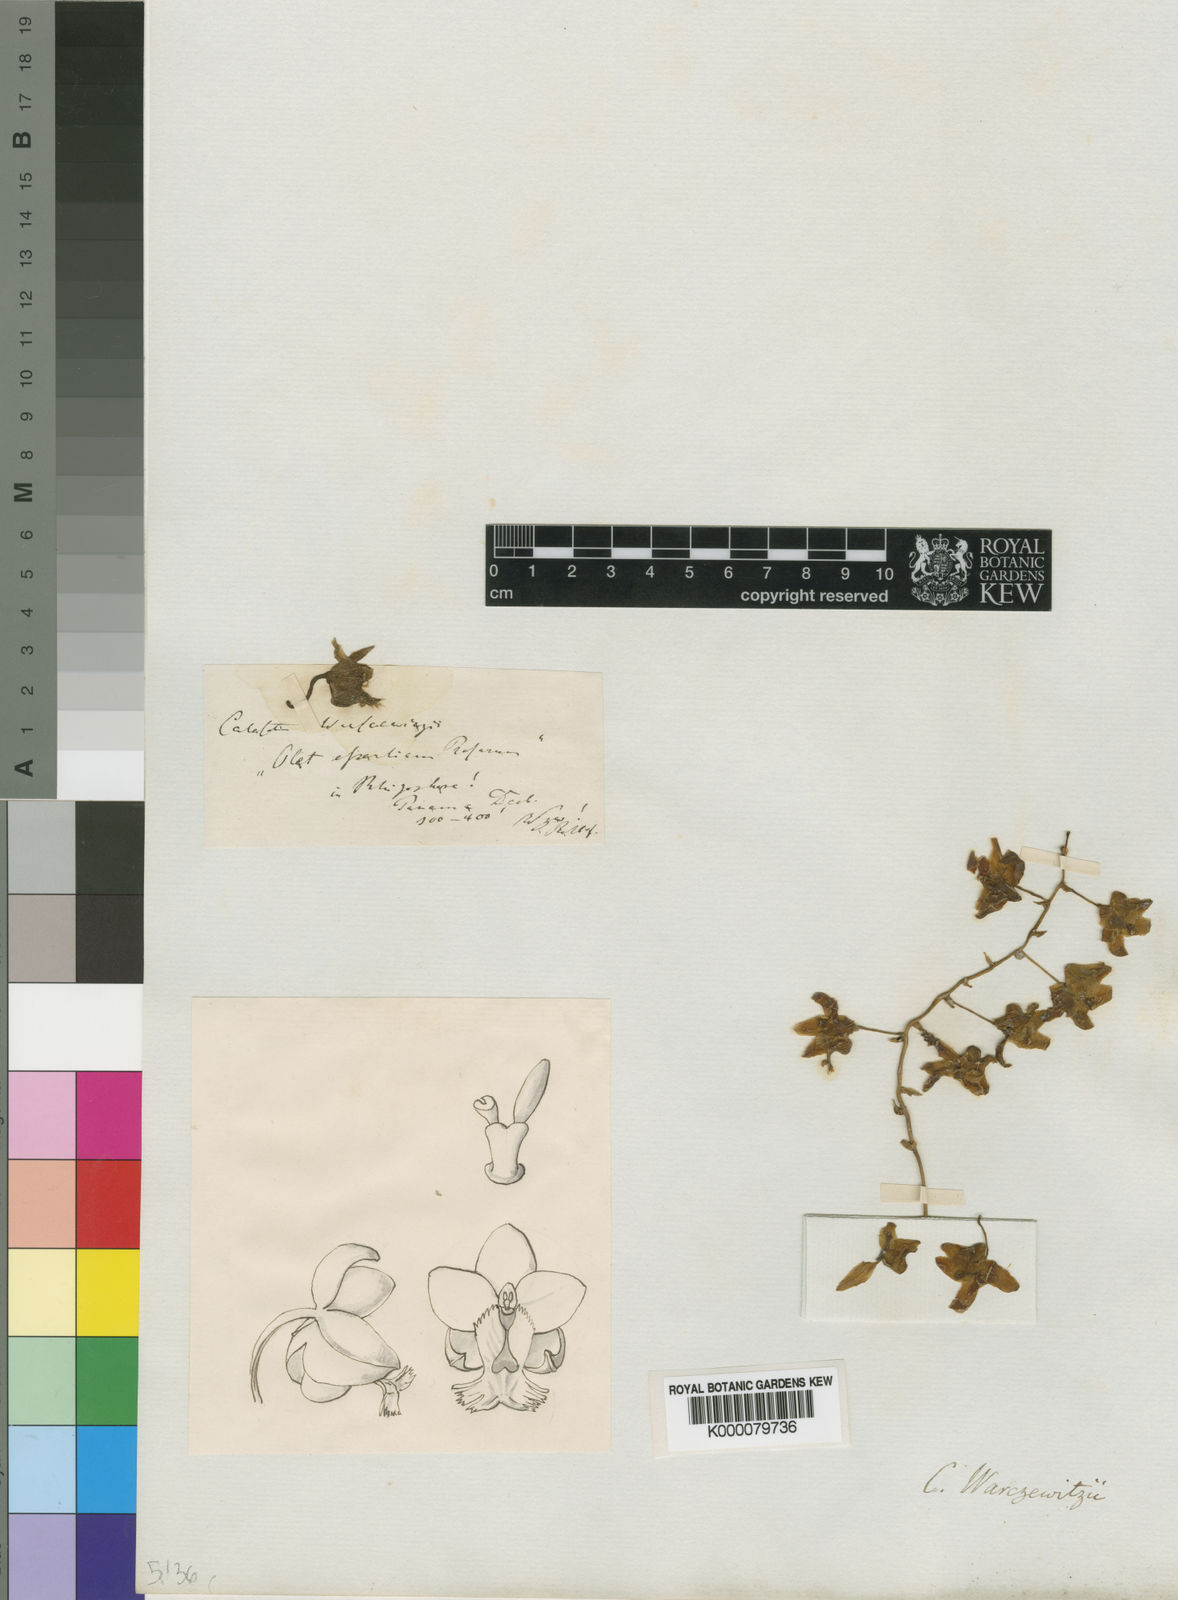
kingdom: Plantae
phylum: Tracheophyta
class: Liliopsida
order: Asparagales
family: Orchidaceae
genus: Clowesia
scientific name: Clowesia
